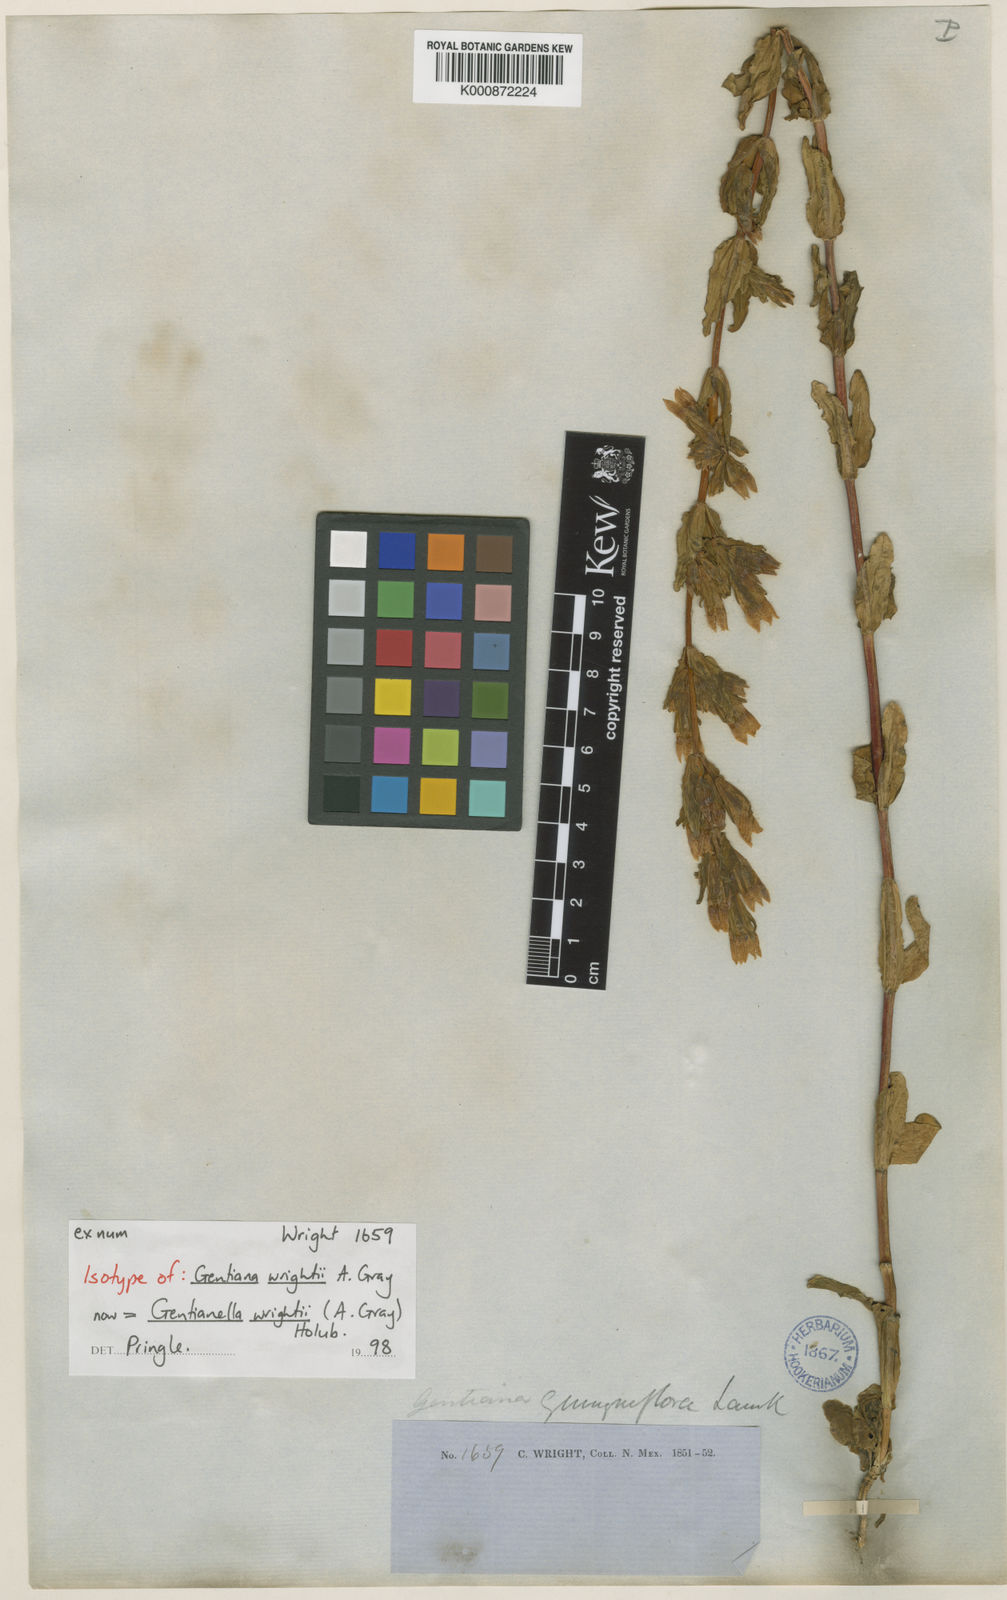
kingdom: Plantae
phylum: Tracheophyta
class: Magnoliopsida
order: Gentianales
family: Gentianaceae
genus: Gentianella
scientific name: Gentianella wrightii
